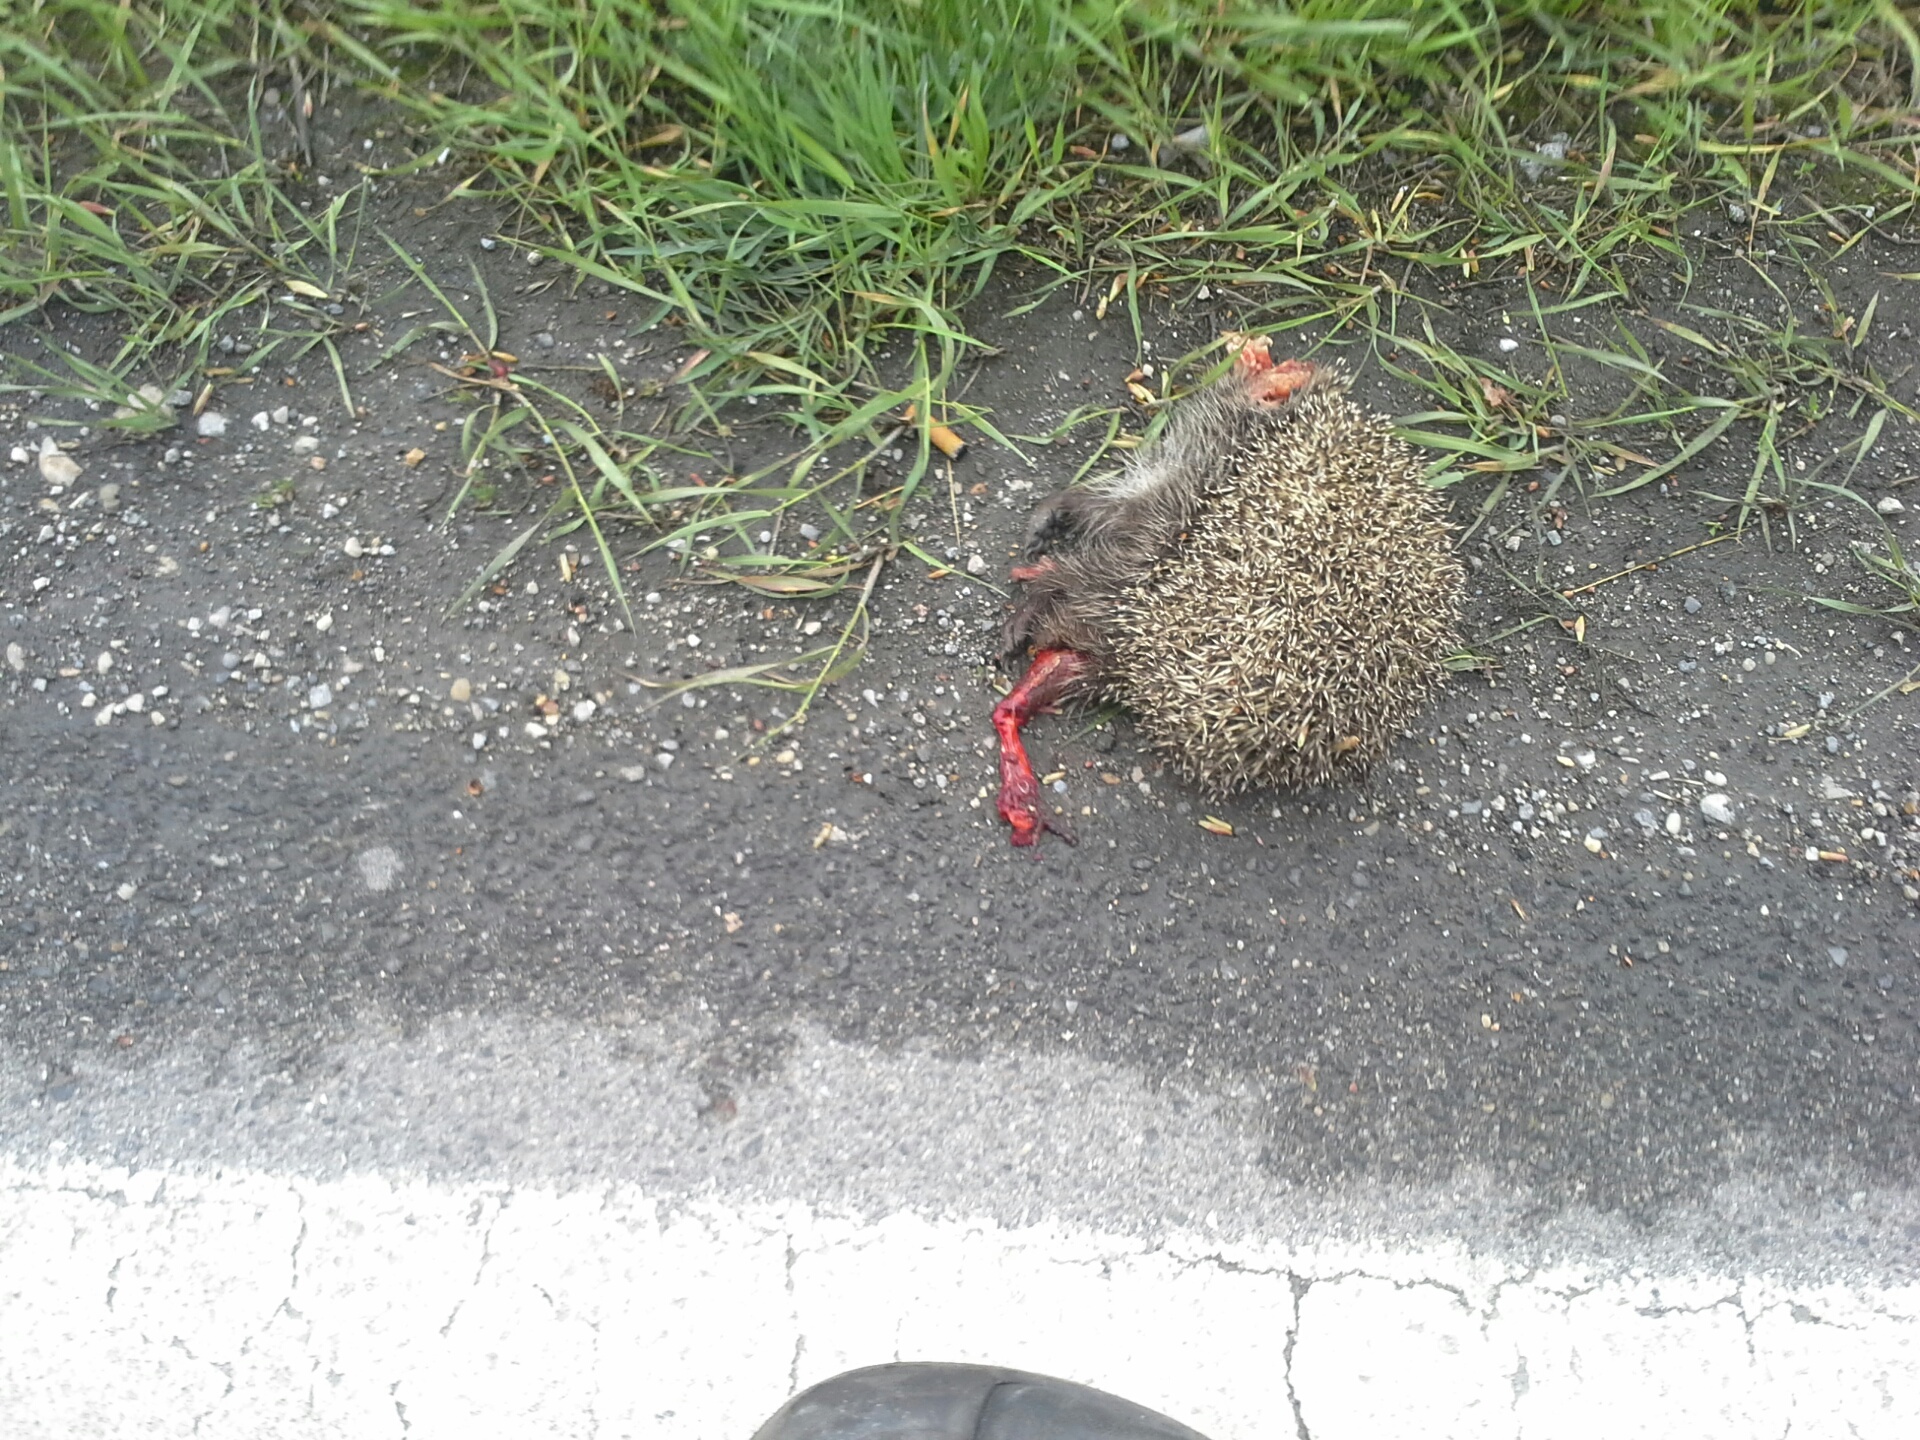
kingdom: Animalia
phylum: Chordata
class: Mammalia
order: Erinaceomorpha
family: Erinaceidae
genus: Erinaceus
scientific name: Erinaceus
